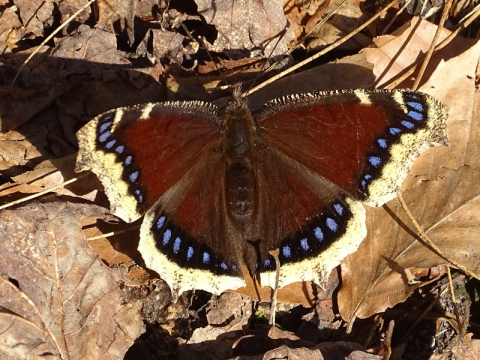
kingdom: Animalia
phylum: Arthropoda
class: Insecta
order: Lepidoptera
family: Nymphalidae
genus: Nymphalis
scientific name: Nymphalis antiopa
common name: Mourning Cloak
